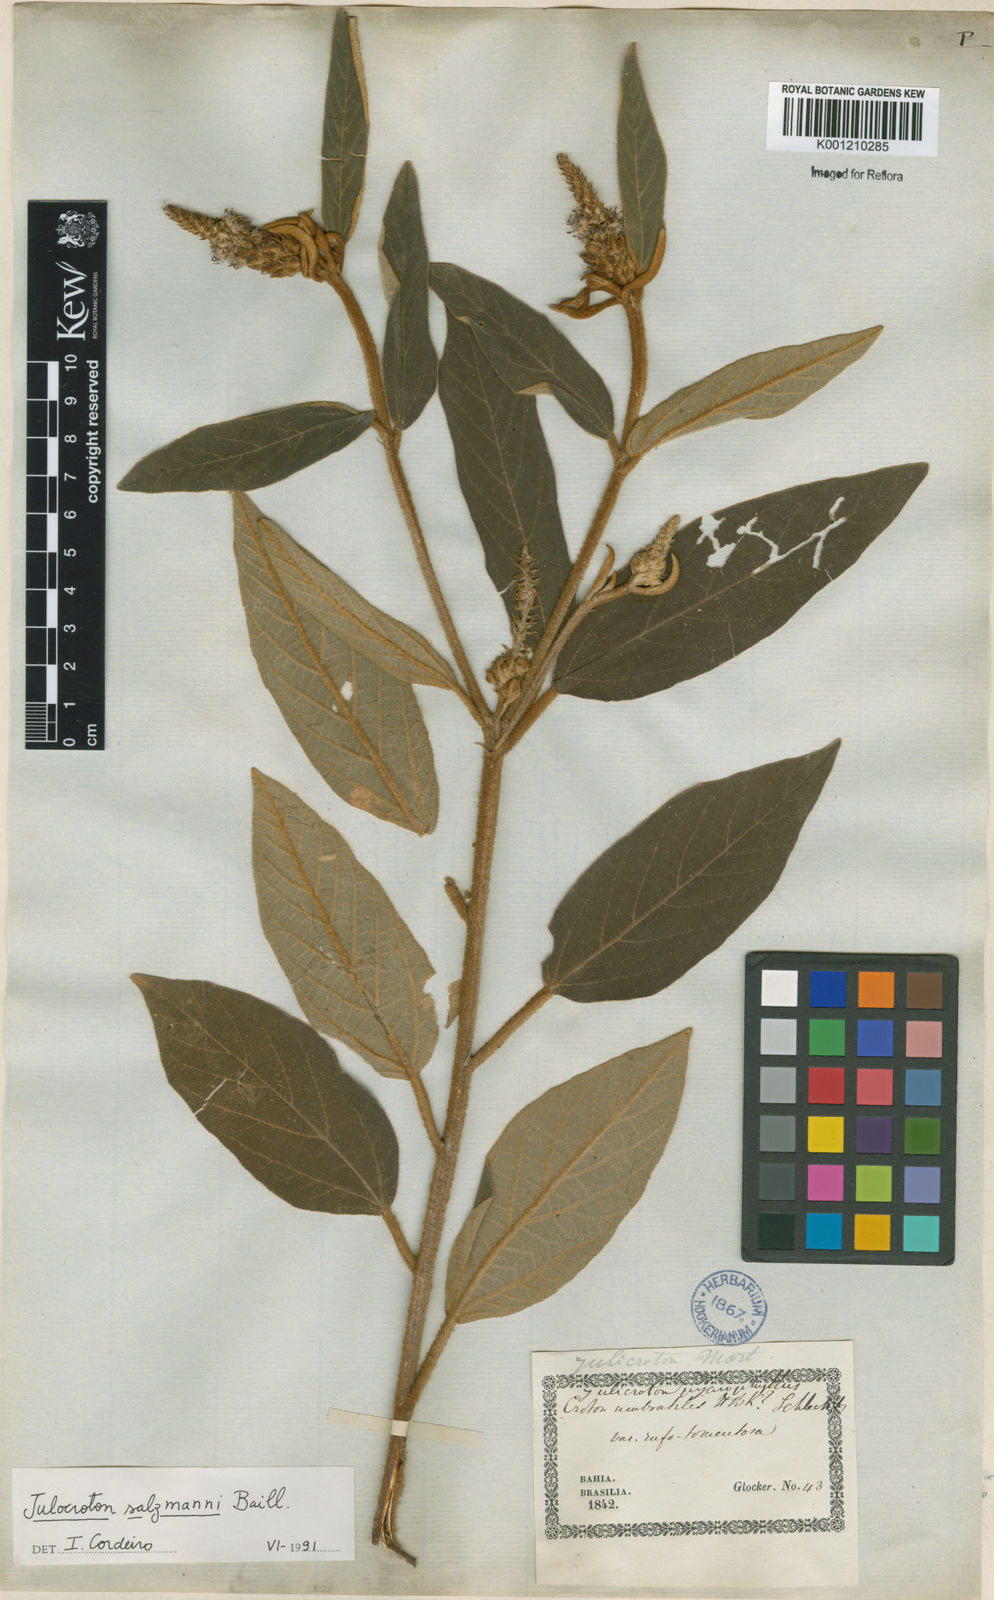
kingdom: Plantae
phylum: Tracheophyta
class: Magnoliopsida
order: Malpighiales
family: Euphorbiaceae
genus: Croton
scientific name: Croton salzmannii
